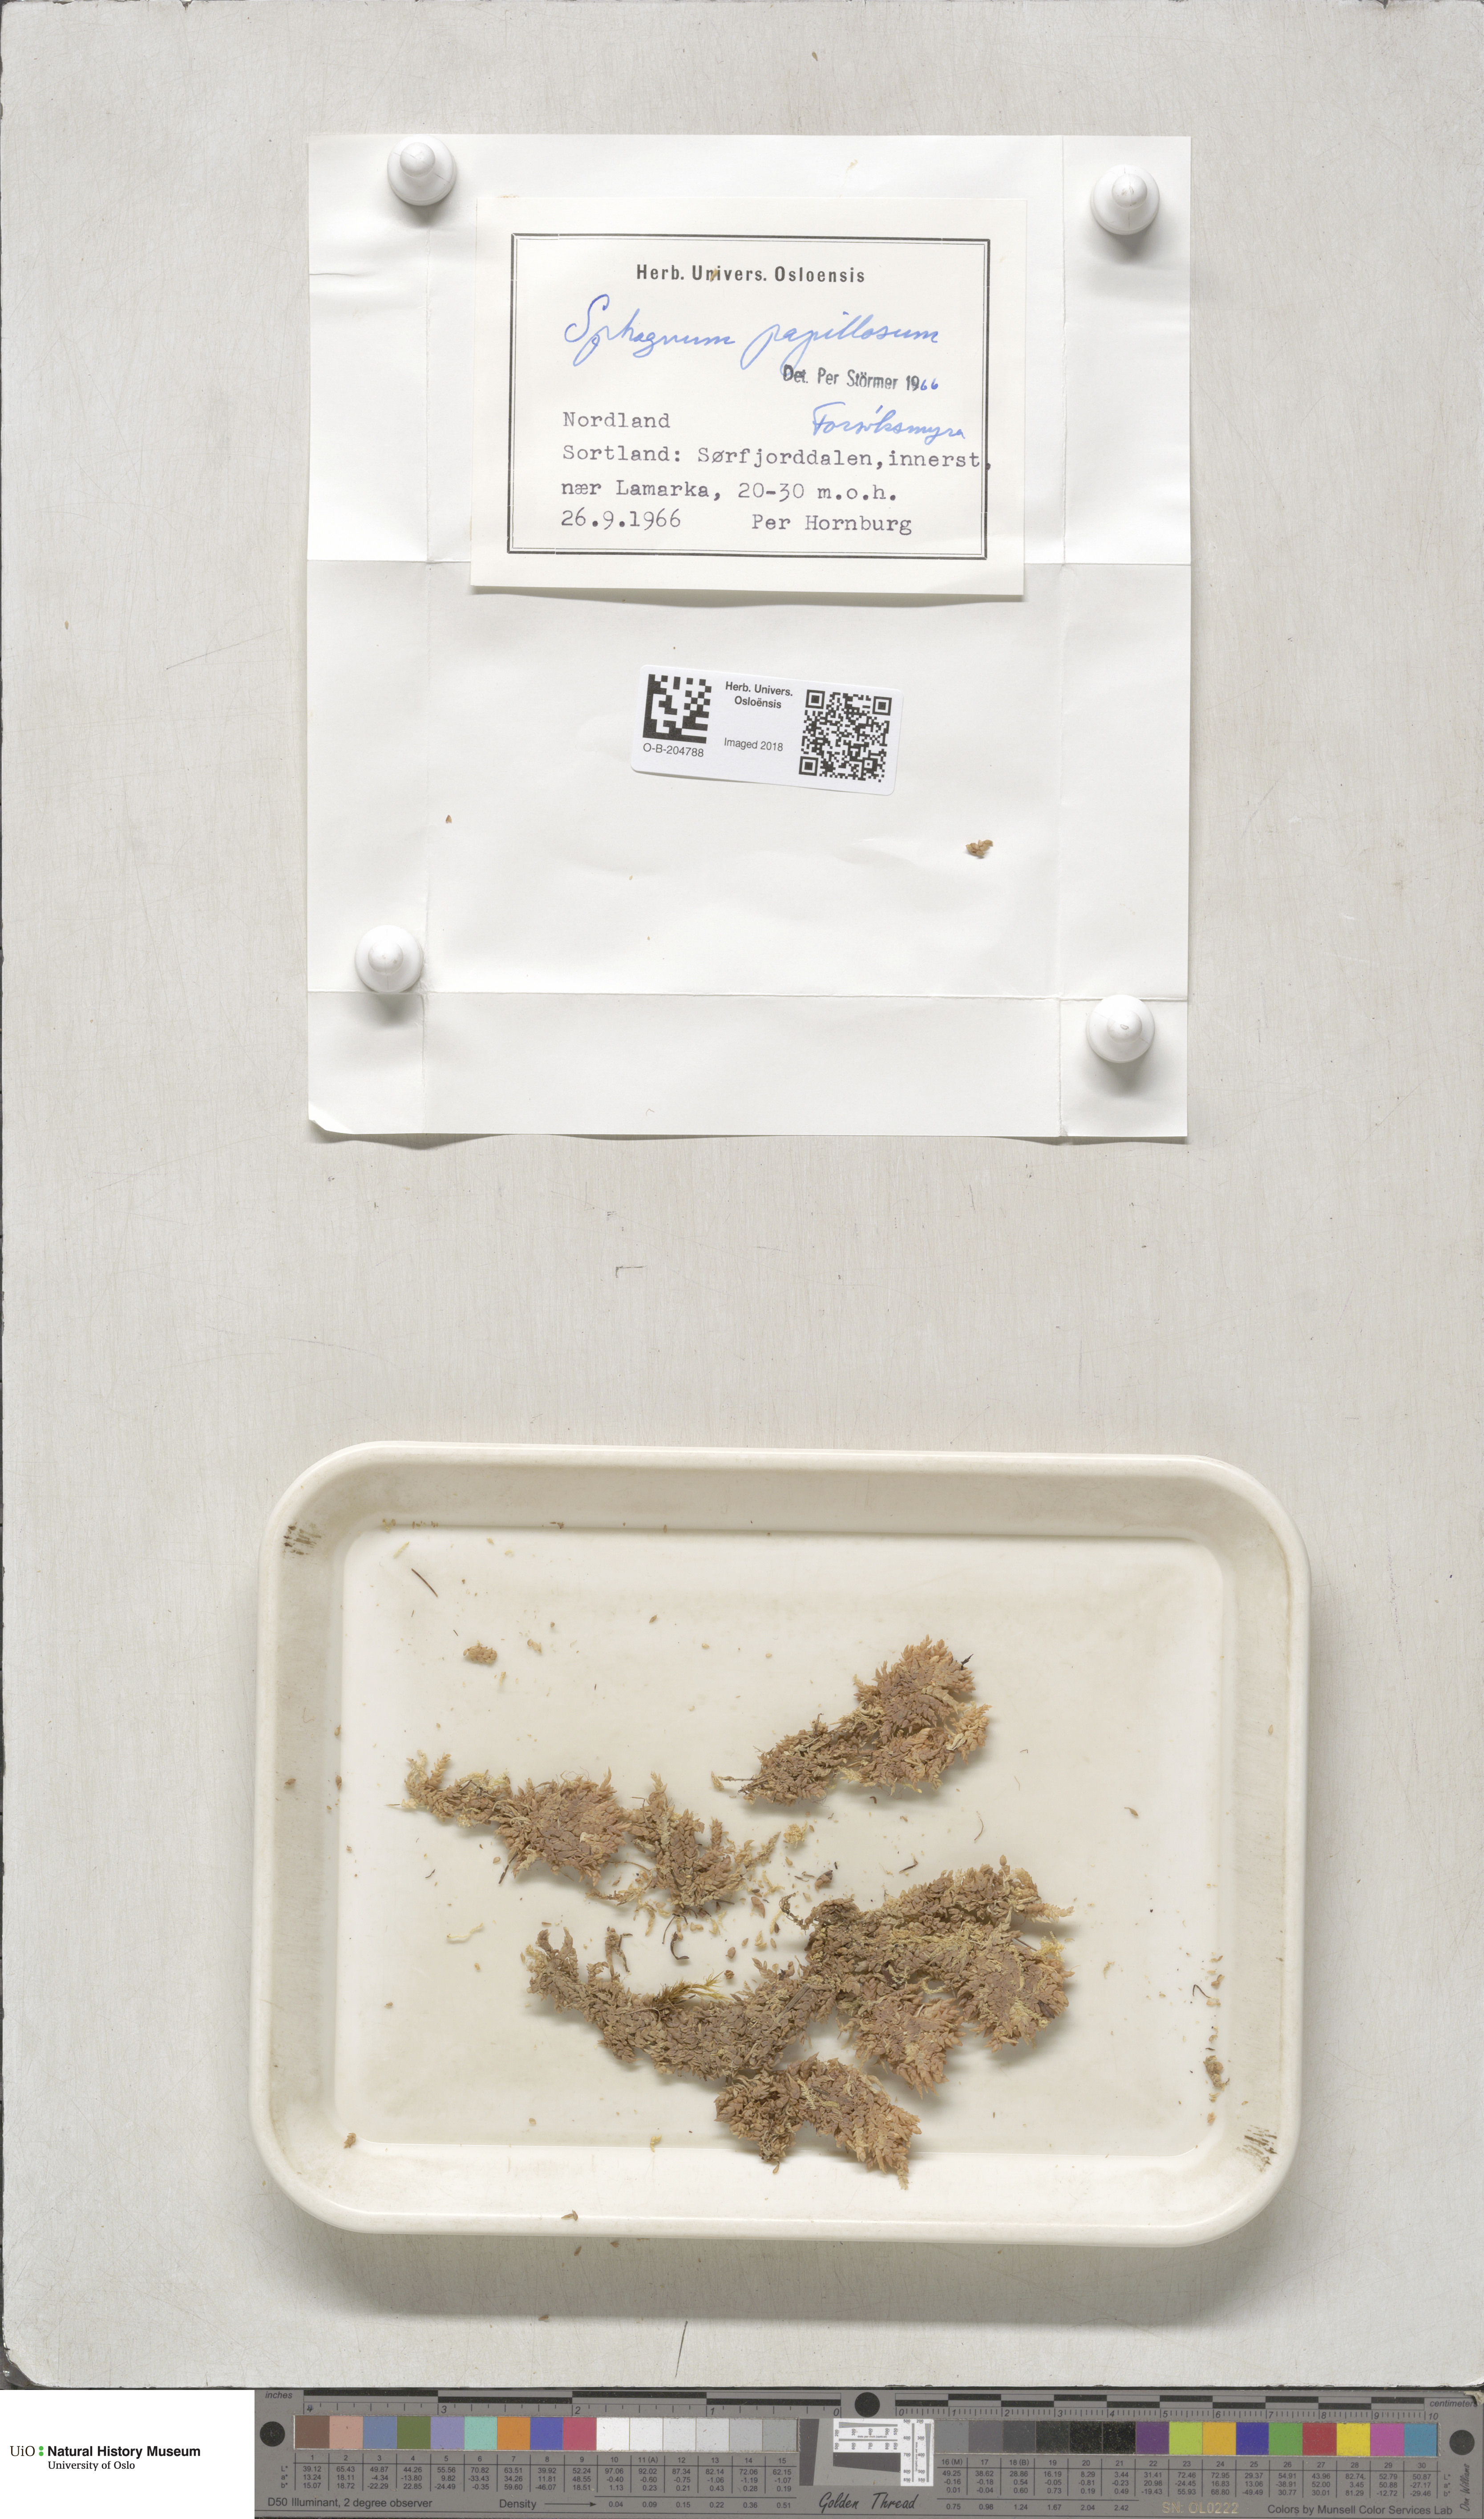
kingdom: Plantae
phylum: Bryophyta
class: Sphagnopsida
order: Sphagnales
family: Sphagnaceae
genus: Sphagnum
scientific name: Sphagnum papillosum
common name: Papillose peat moss
